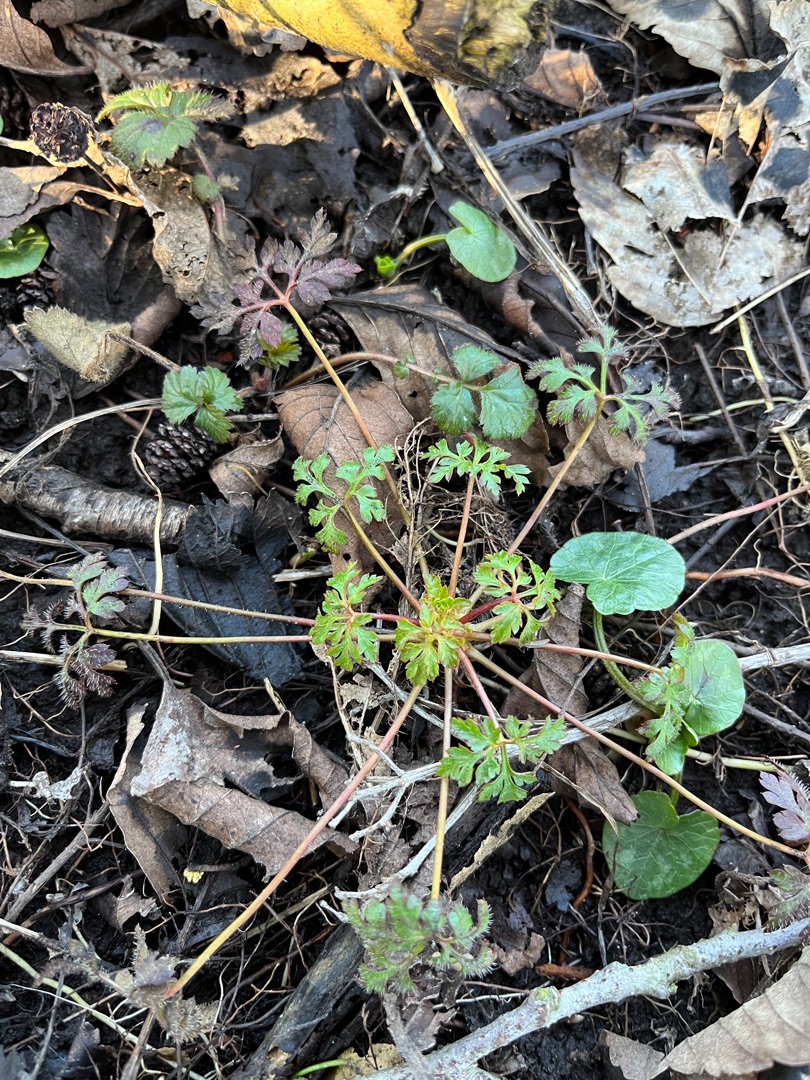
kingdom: Plantae
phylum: Tracheophyta
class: Magnoliopsida
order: Geraniales
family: Geraniaceae
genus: Geranium
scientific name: Geranium robertianum
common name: Stinkende storkenæb
